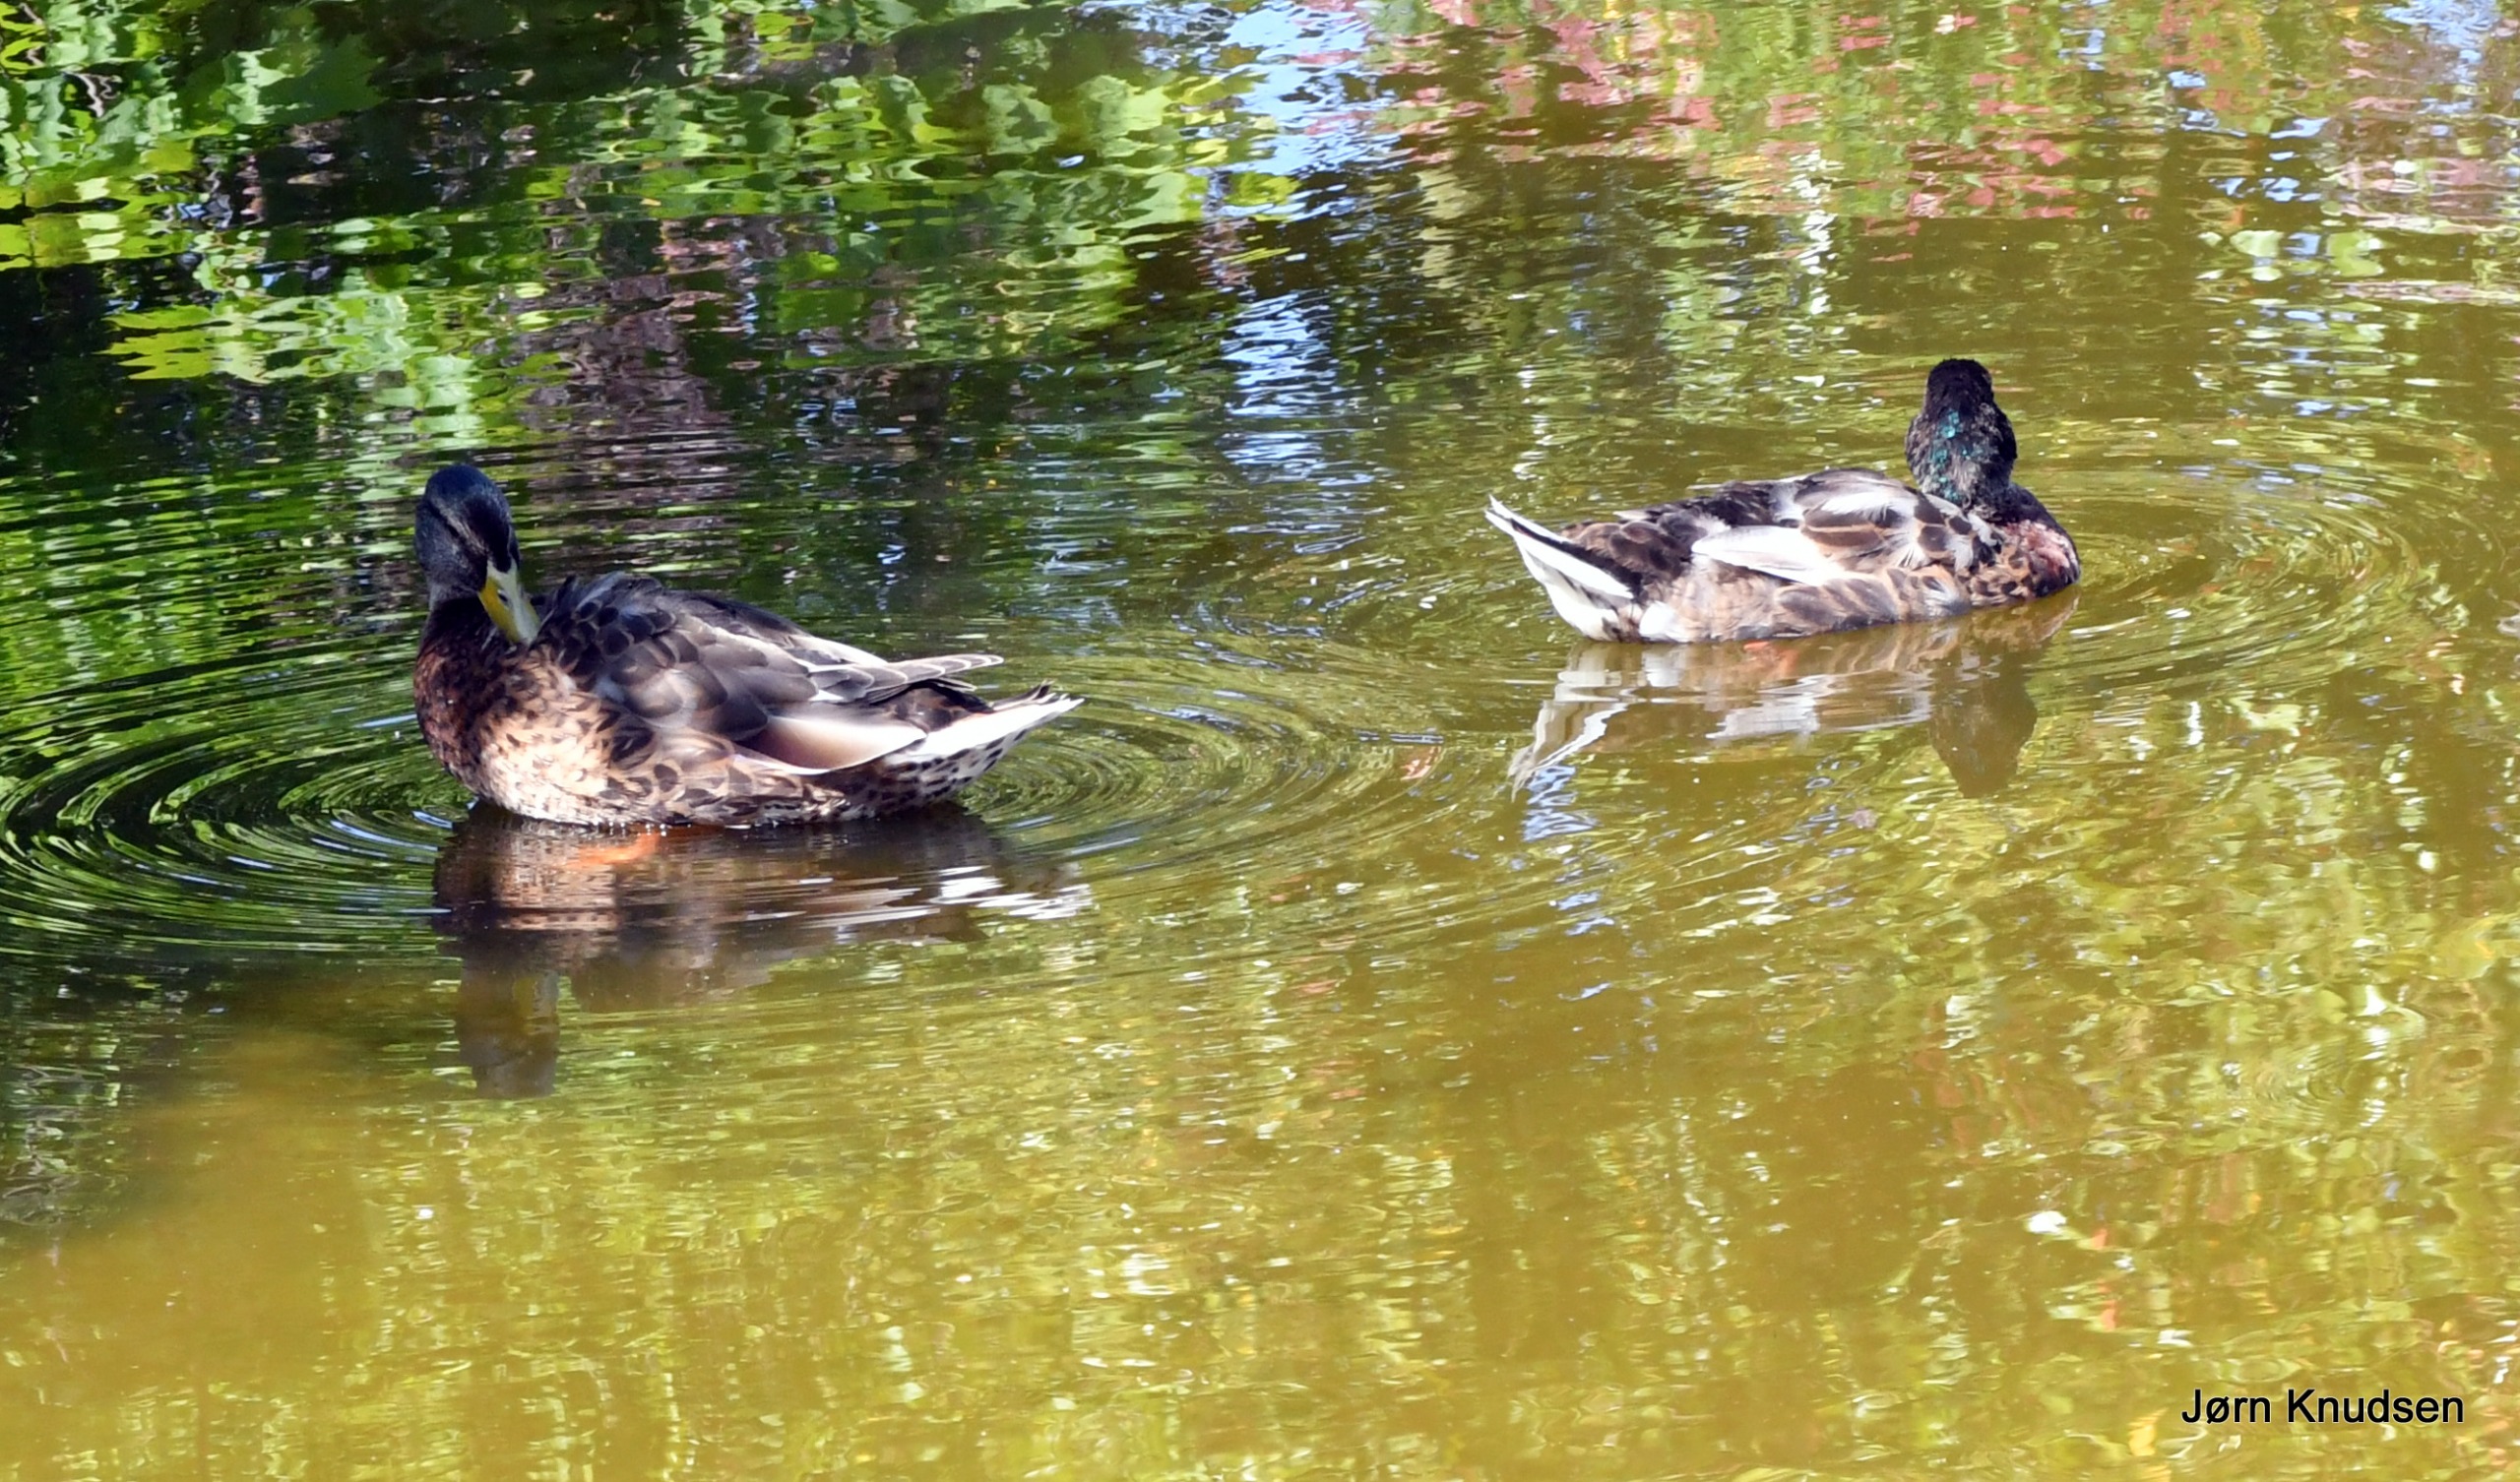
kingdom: Animalia
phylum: Chordata
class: Aves
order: Anseriformes
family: Anatidae
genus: Anas
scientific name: Anas platyrhynchos
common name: Gråand
